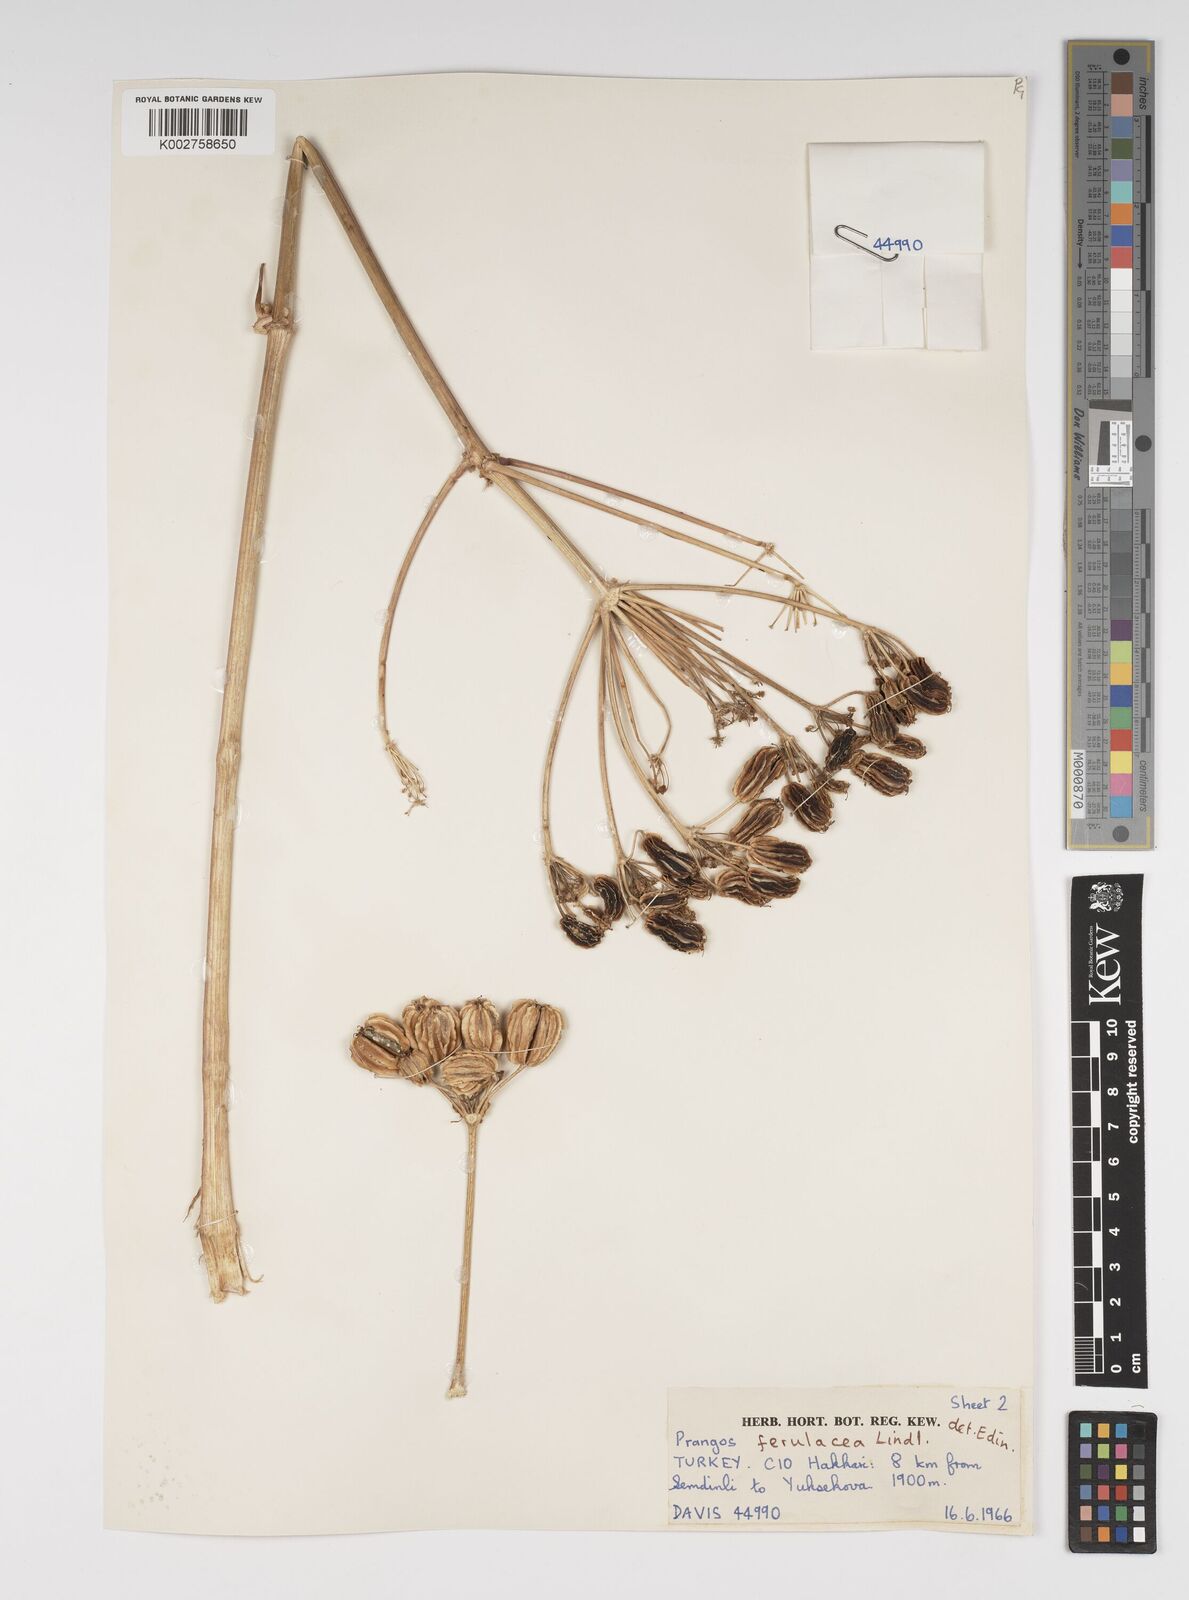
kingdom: Plantae
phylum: Tracheophyta
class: Magnoliopsida
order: Apiales
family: Apiaceae
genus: Prangos
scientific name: Prangos ferulacea
